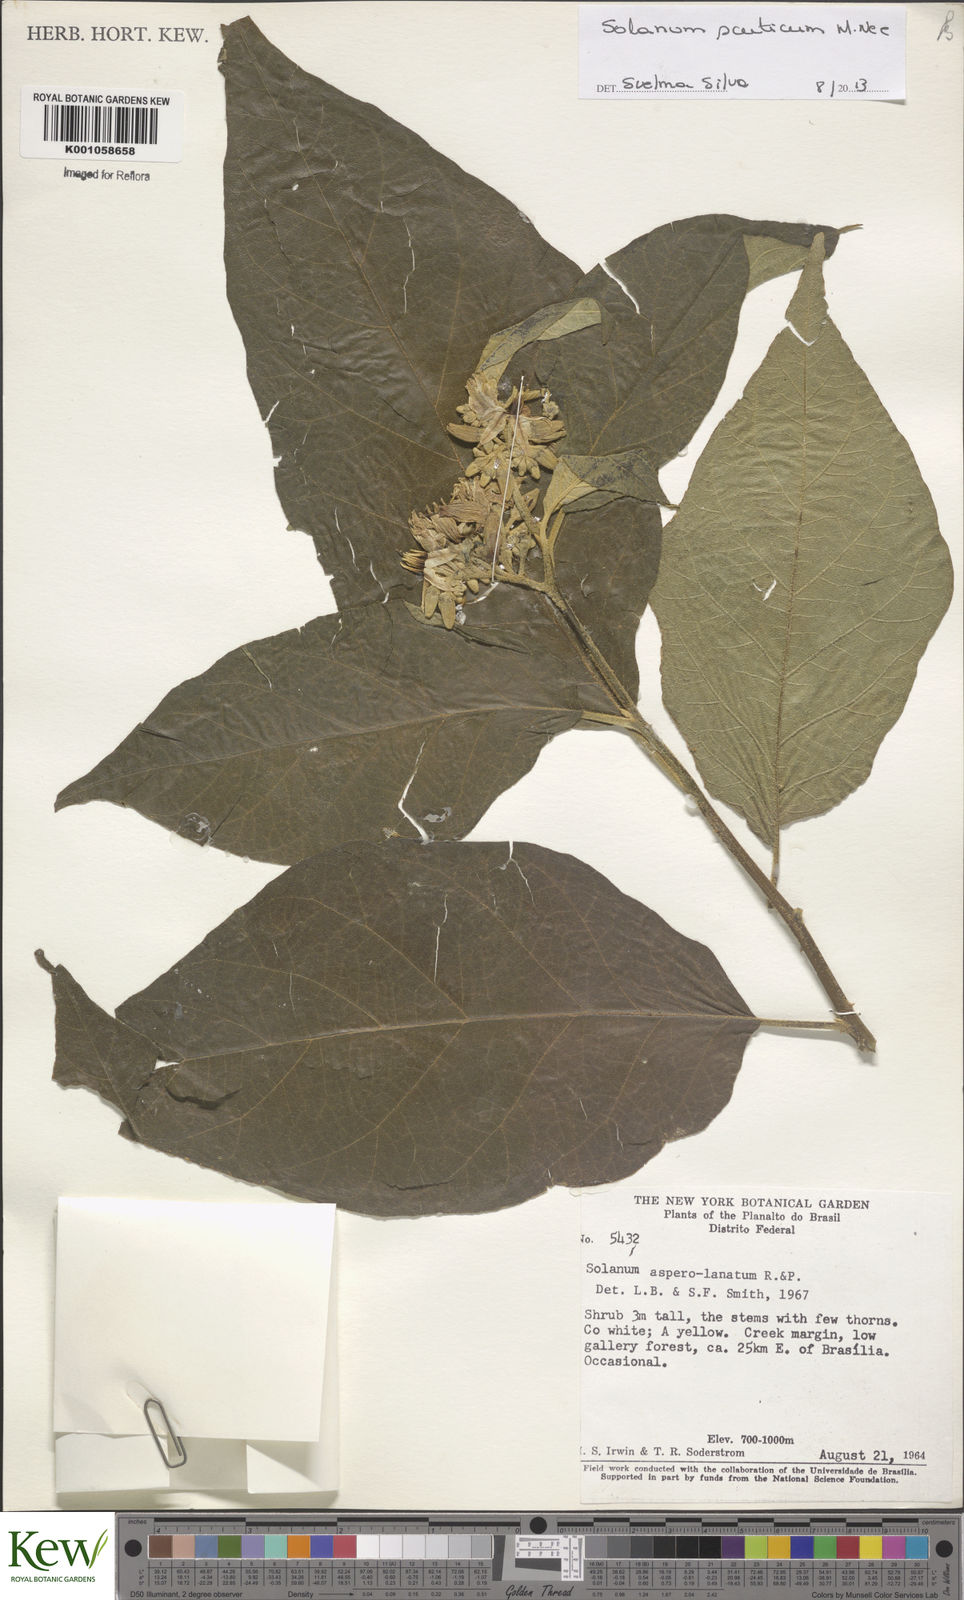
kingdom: Plantae
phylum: Tracheophyta
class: Magnoliopsida
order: Solanales
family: Solanaceae
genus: Solanum
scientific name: Solanum scuticum
